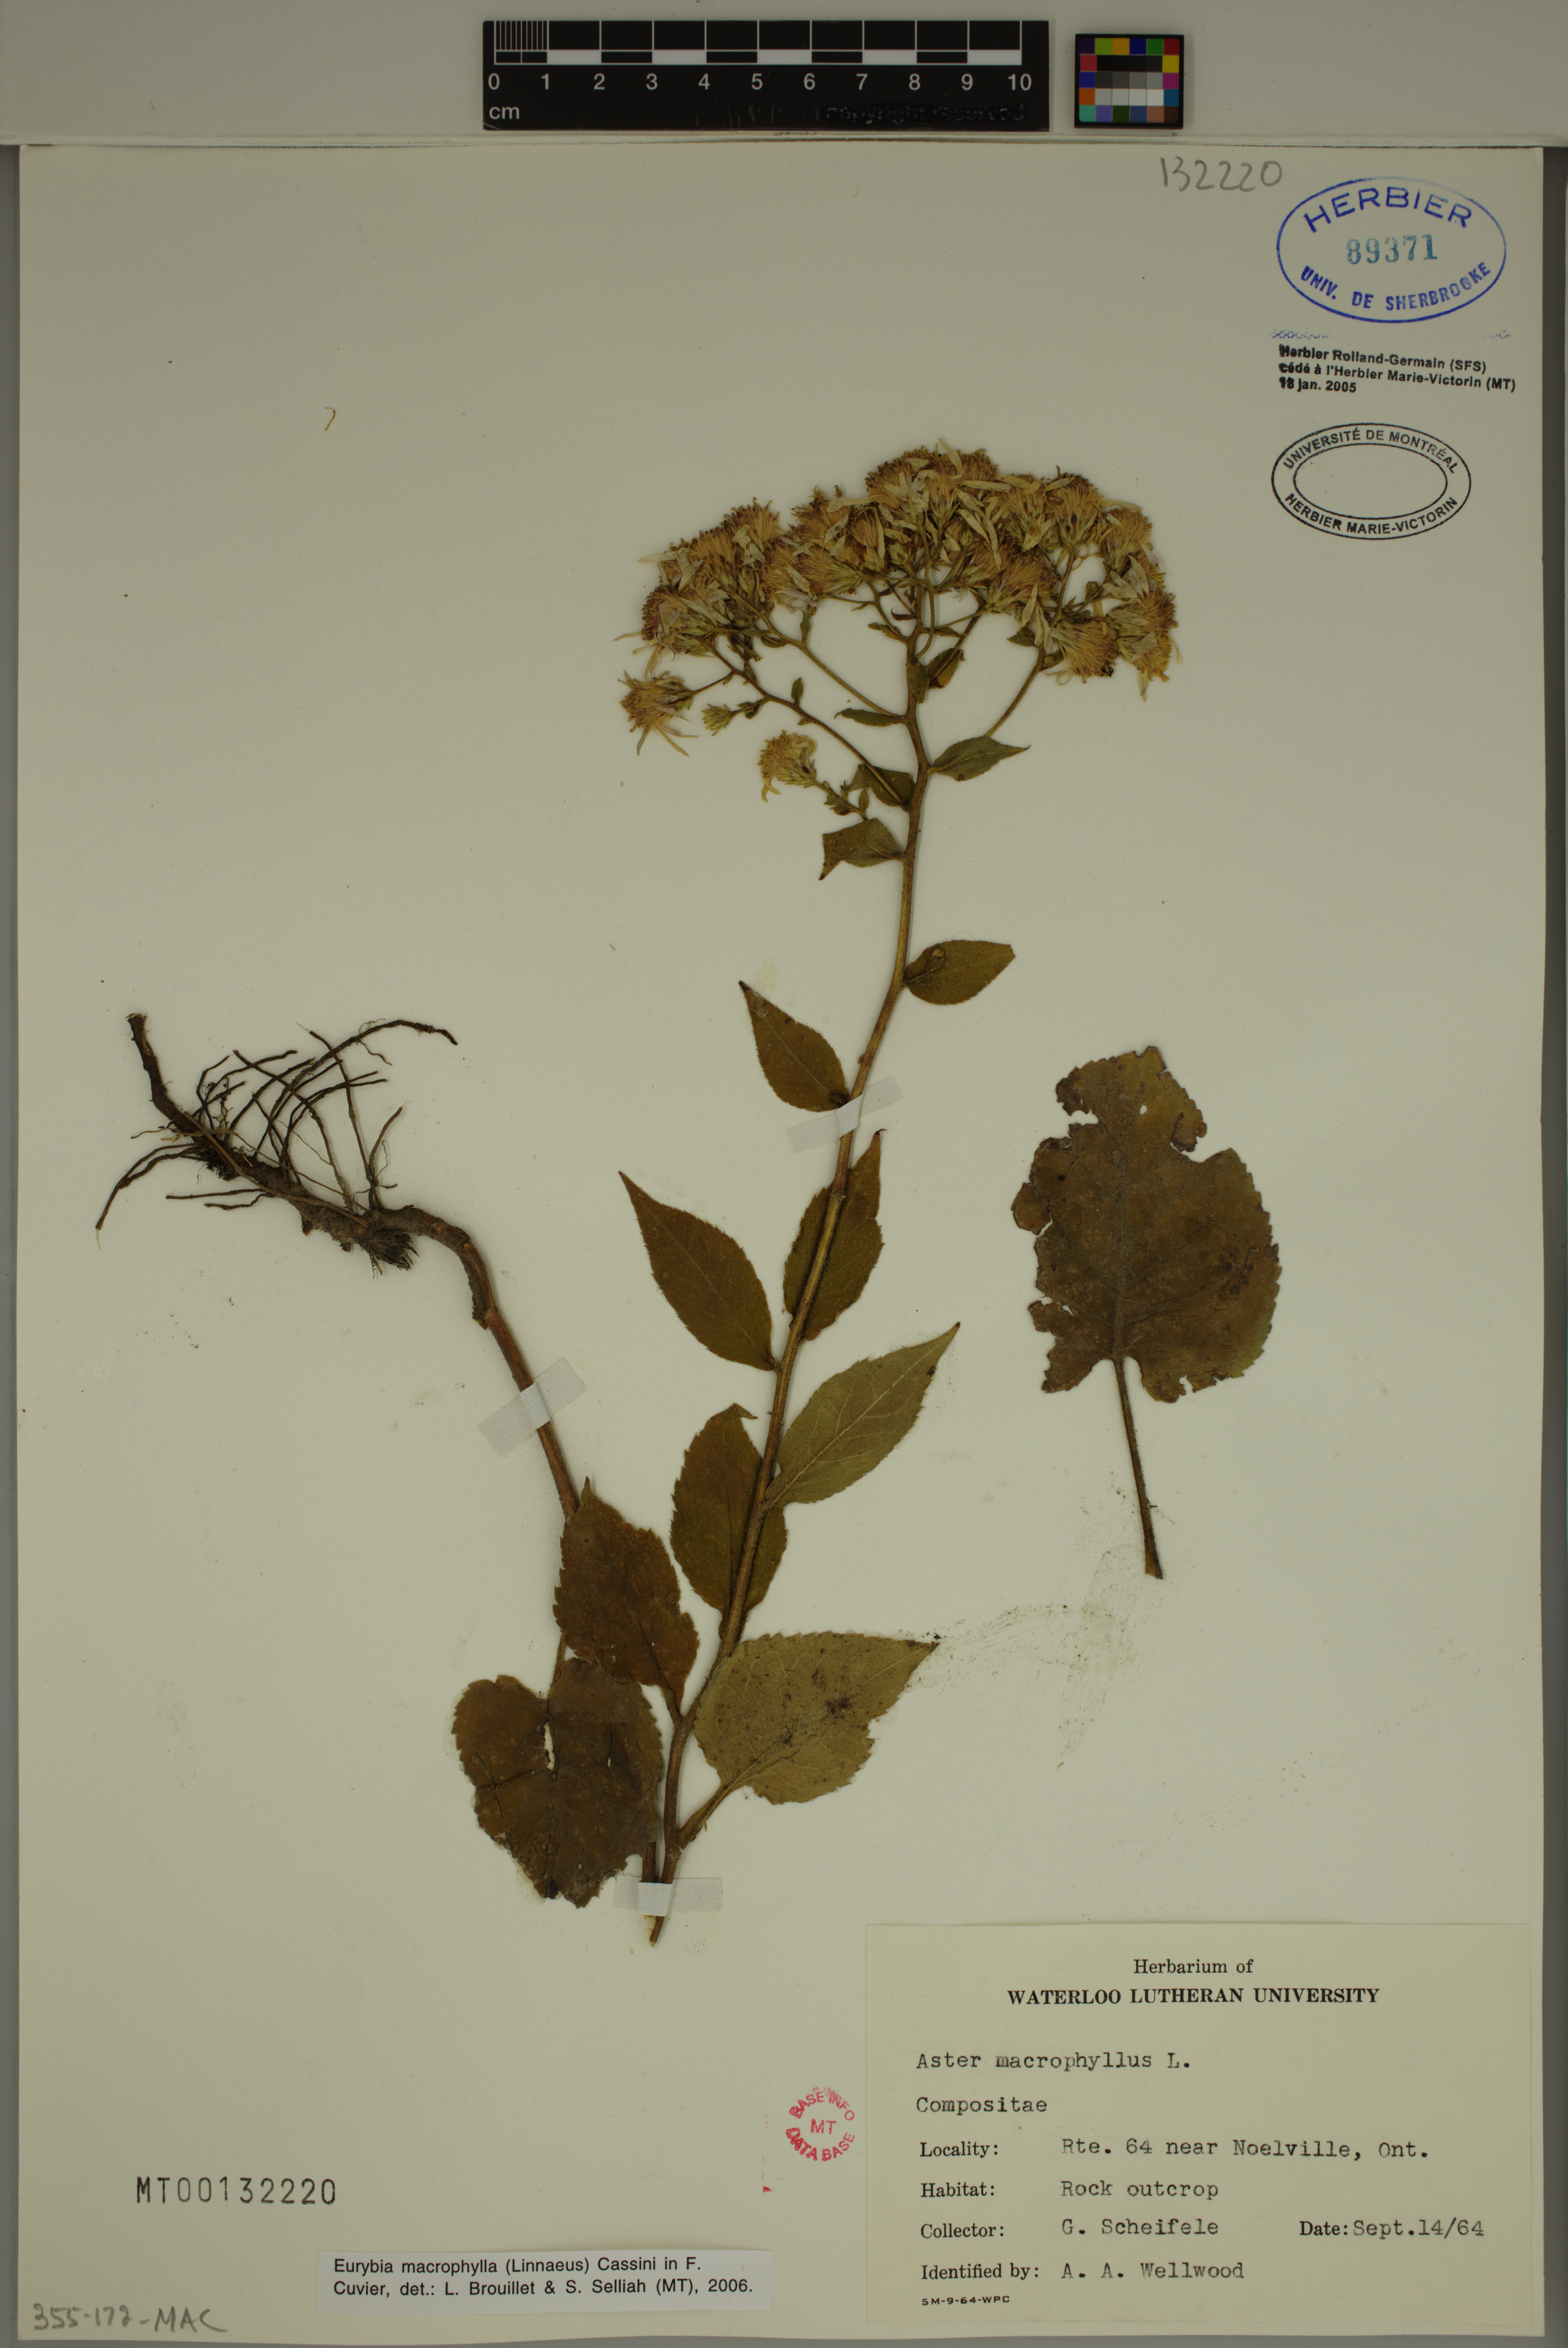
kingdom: Plantae
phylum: Tracheophyta
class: Magnoliopsida
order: Asterales
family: Asteraceae
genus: Eurybia
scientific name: Eurybia macrophylla
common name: Big-leaved aster
